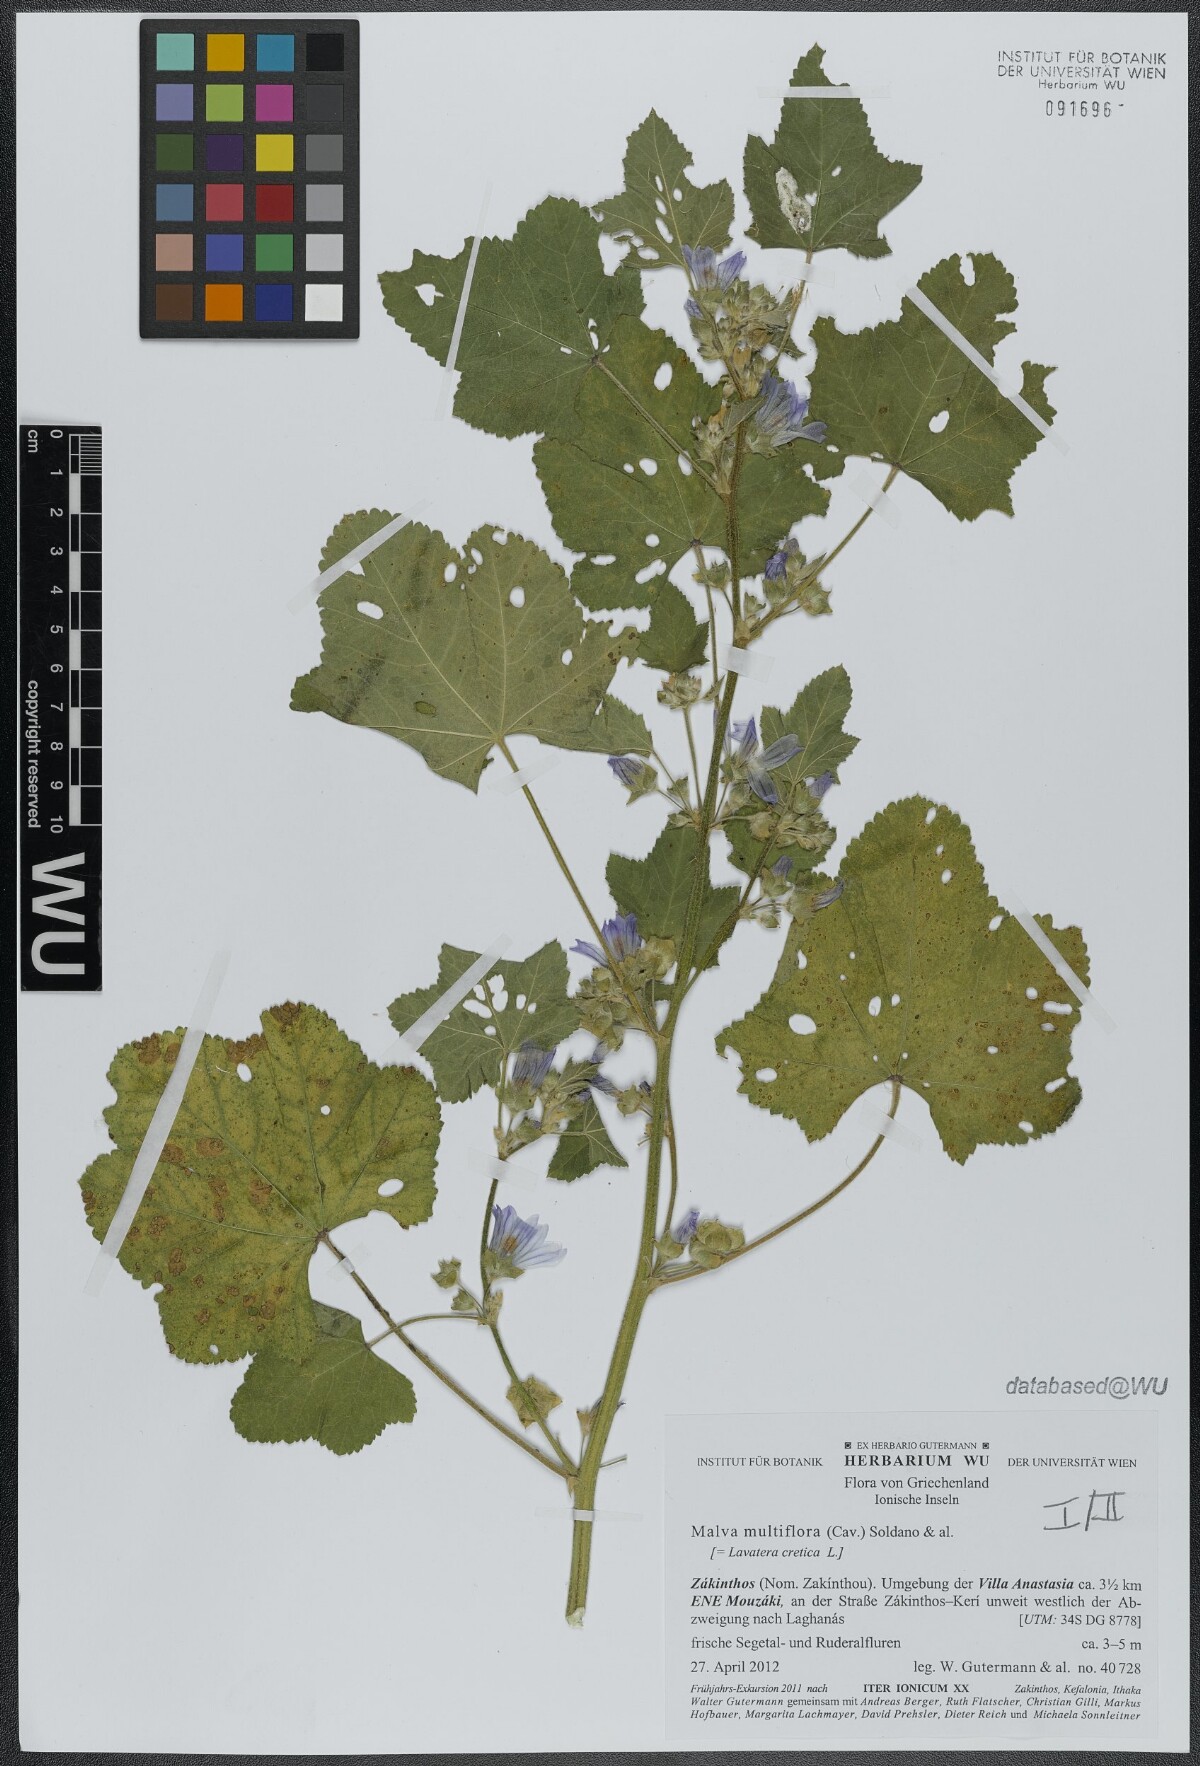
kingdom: Plantae
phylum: Tracheophyta
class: Magnoliopsida
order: Malvales
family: Malvaceae
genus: Malva
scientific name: Malva multiflora
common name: Cheeseweed
